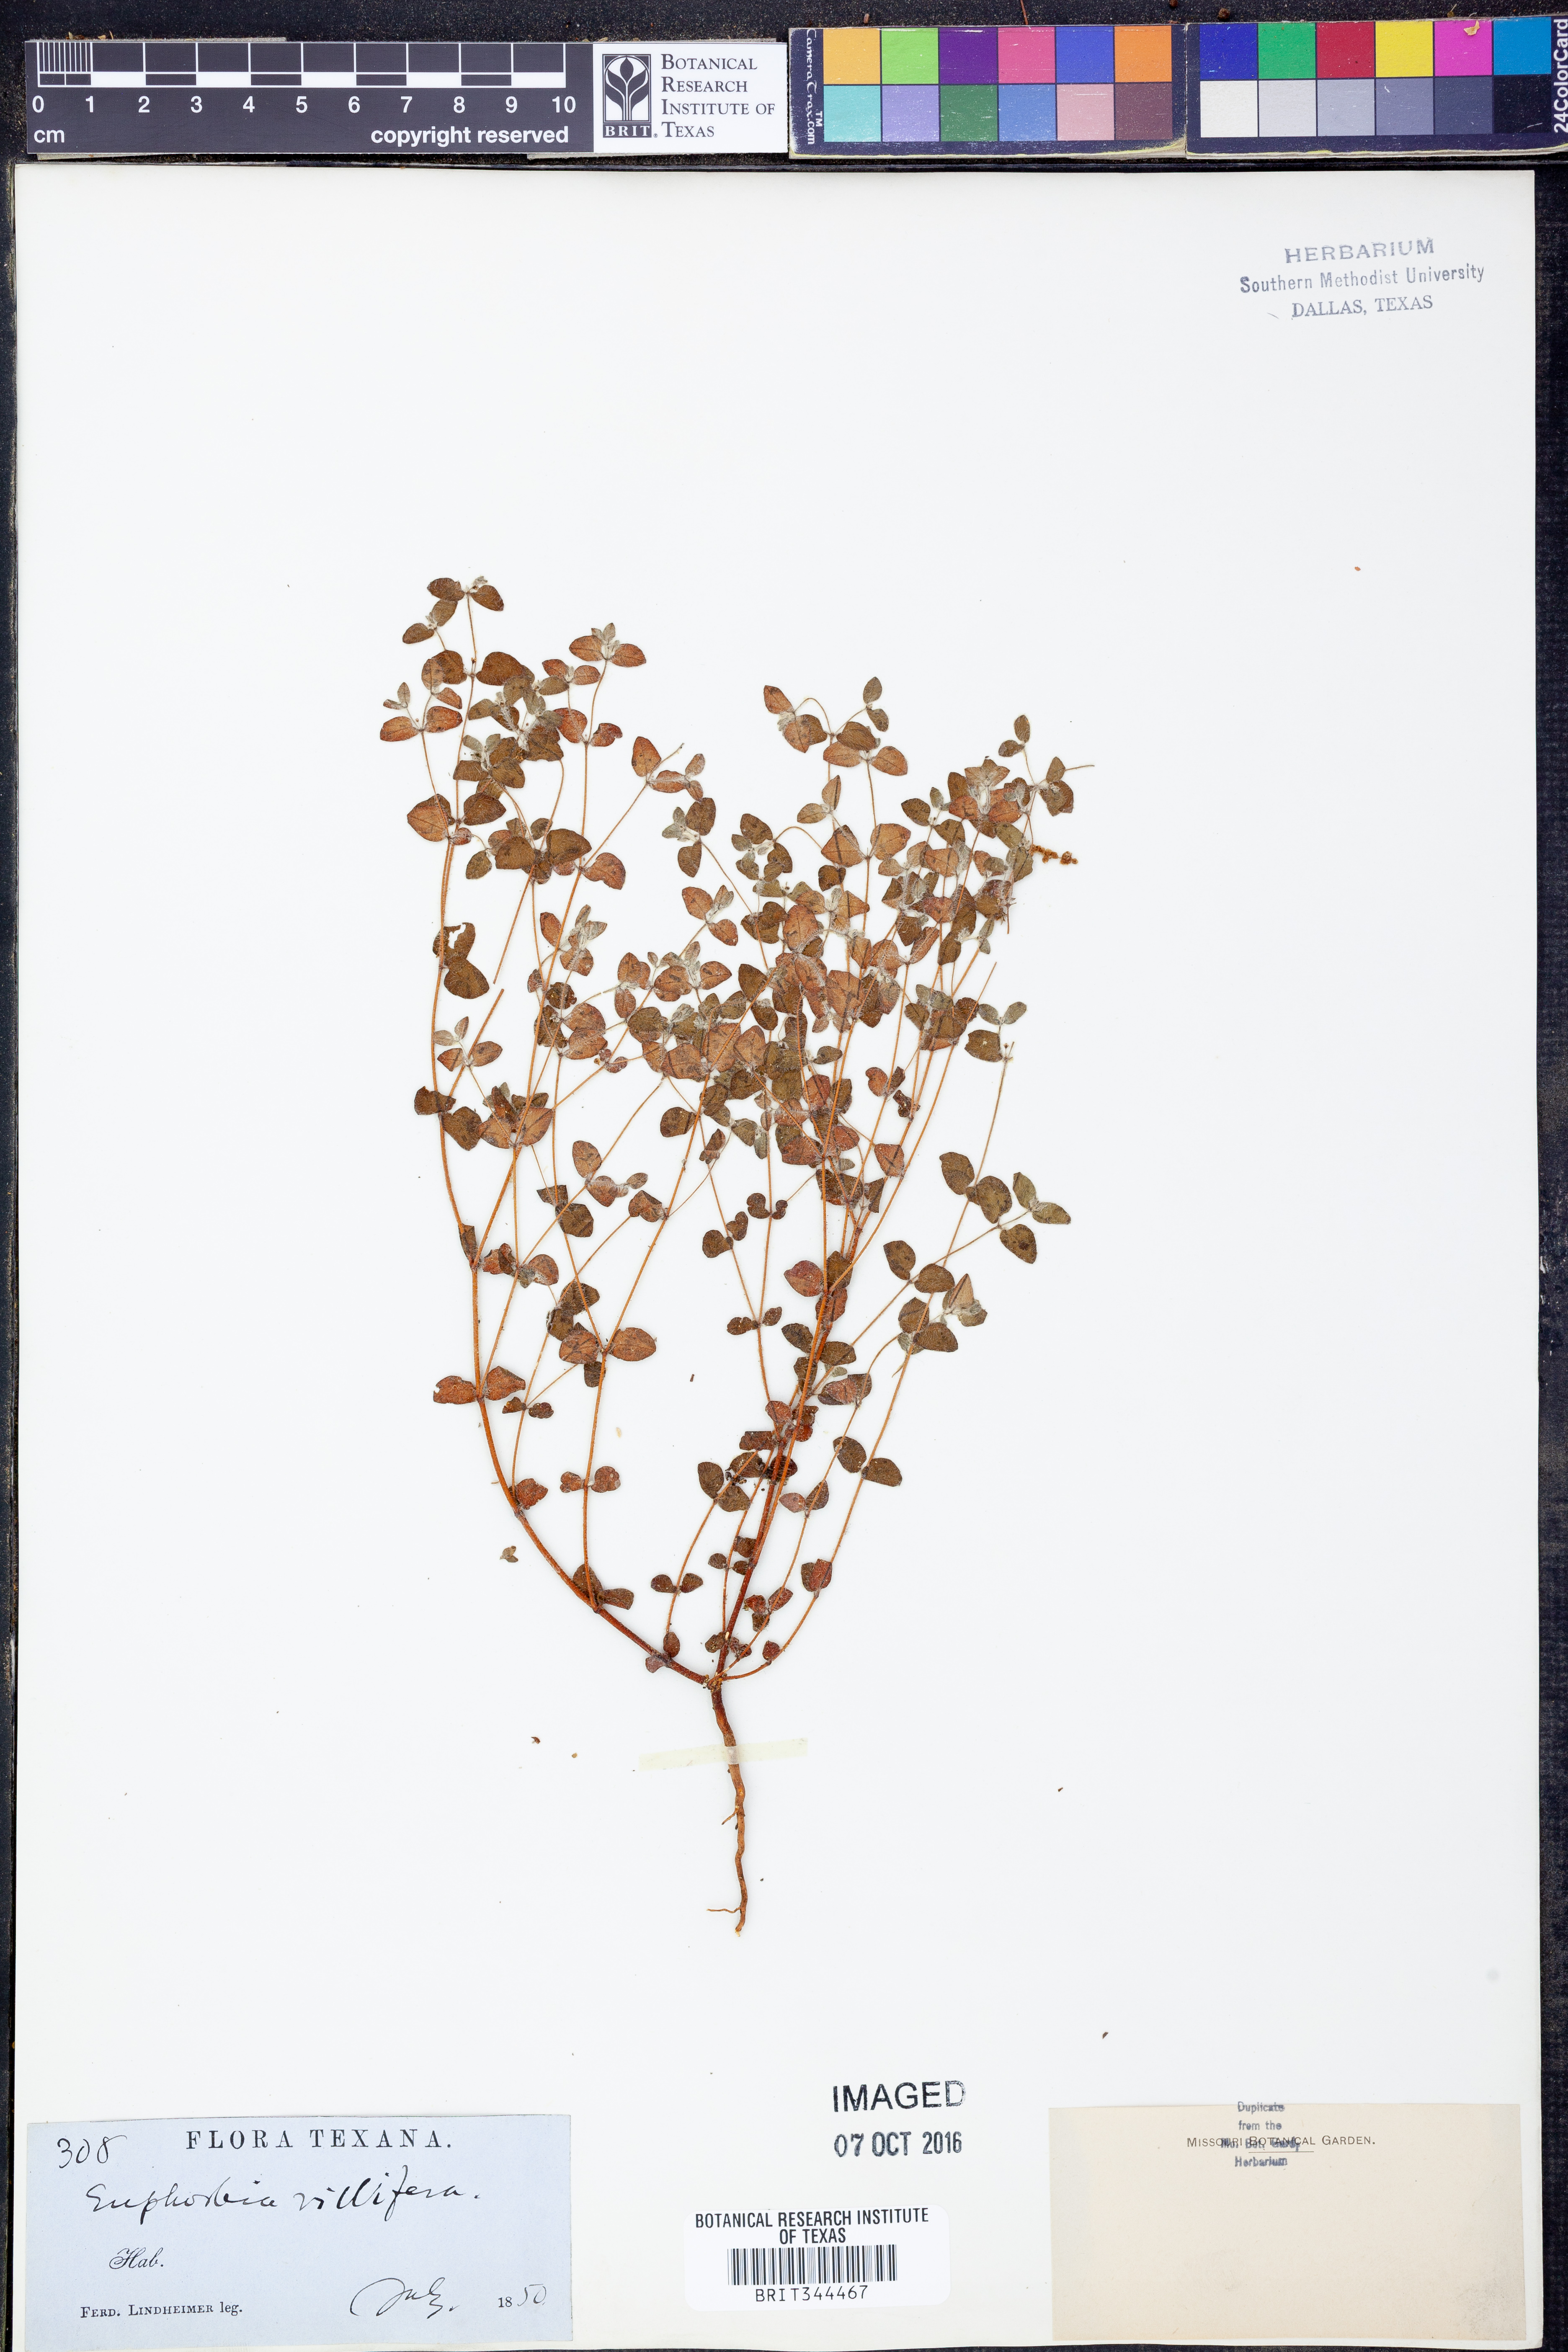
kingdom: Plantae
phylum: Tracheophyta
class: Magnoliopsida
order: Malpighiales
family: Euphorbiaceae
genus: Euphorbia
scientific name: Euphorbia micractina
